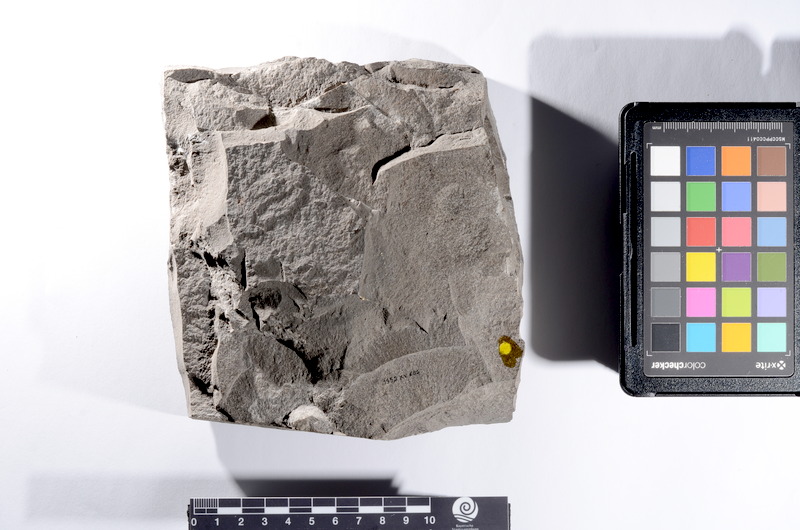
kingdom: Animalia
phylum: Chordata
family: Saurichthyidae
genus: Saurorhynchus
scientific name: Saurorhynchus brevirostris
